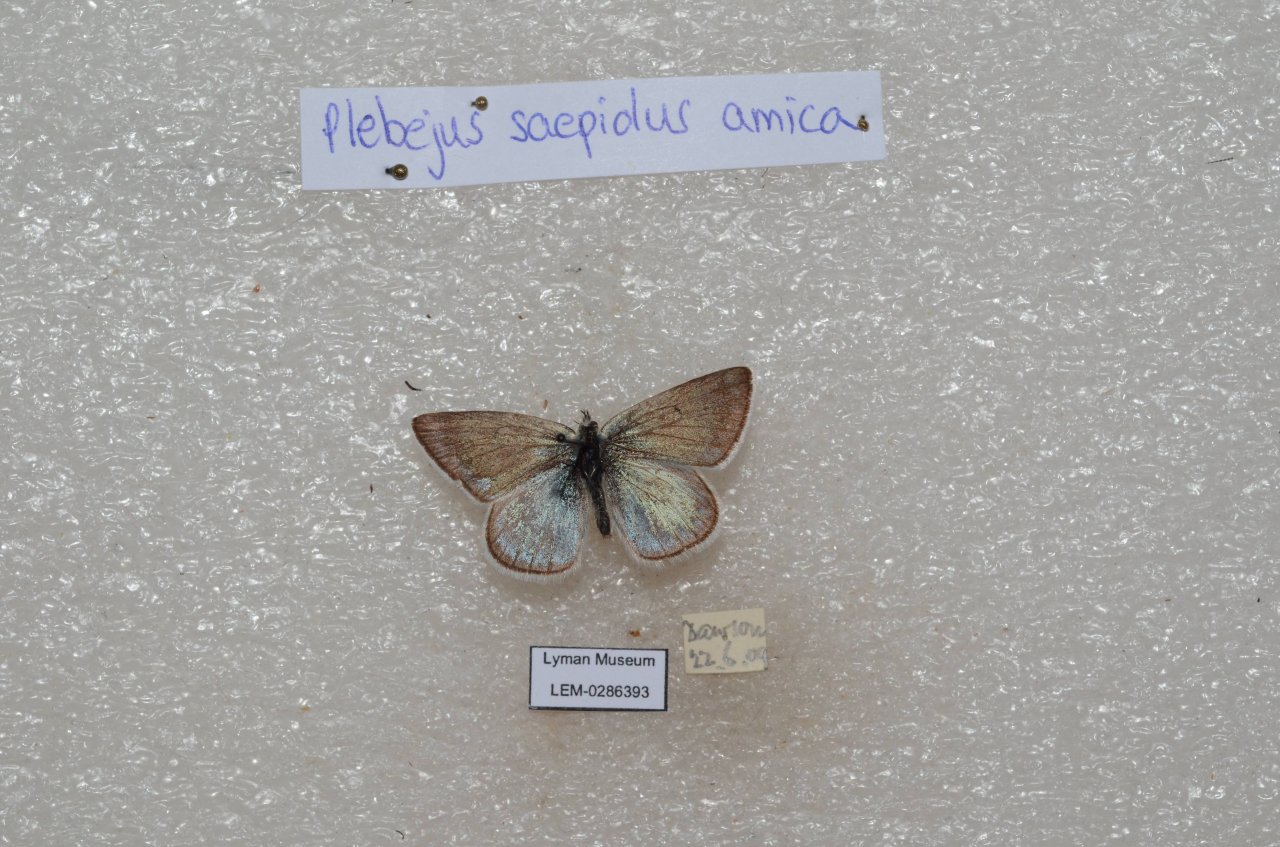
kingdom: Animalia
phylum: Arthropoda
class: Insecta
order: Lepidoptera
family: Lycaenidae
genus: Plebejus
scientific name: Plebejus saepiolus
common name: Greenish Blue
